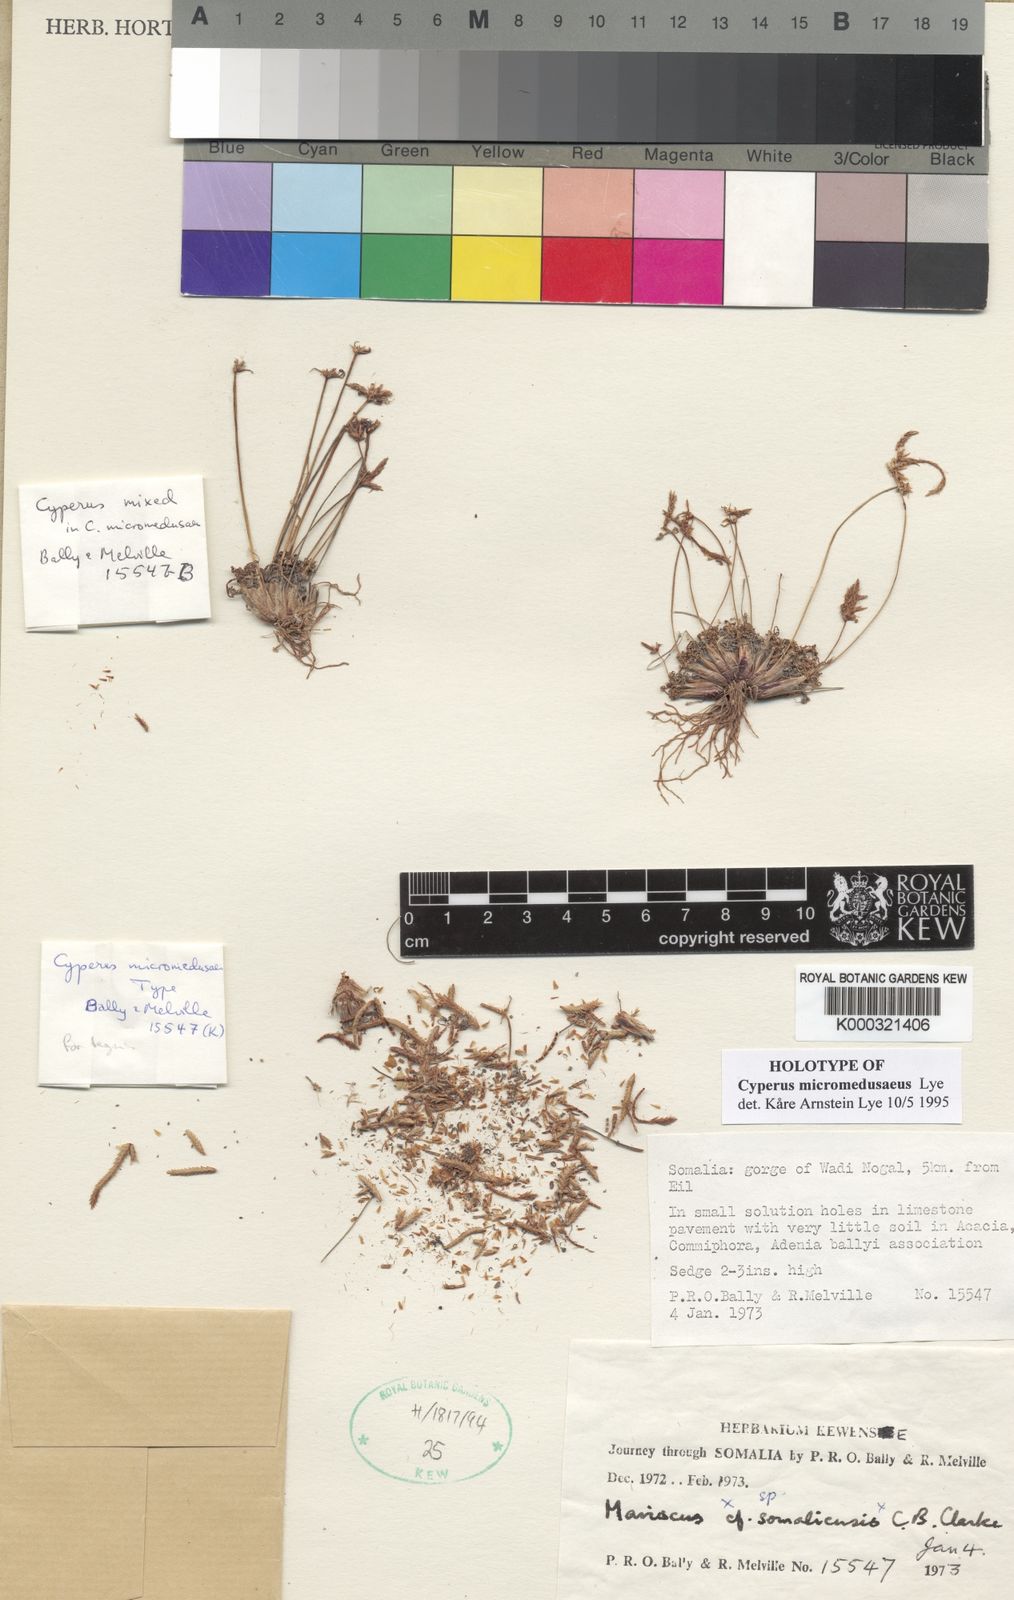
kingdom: Plantae
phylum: Tracheophyta
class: Liliopsida
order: Poales
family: Cyperaceae
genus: Cyperus
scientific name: Cyperus micromedusaeus
